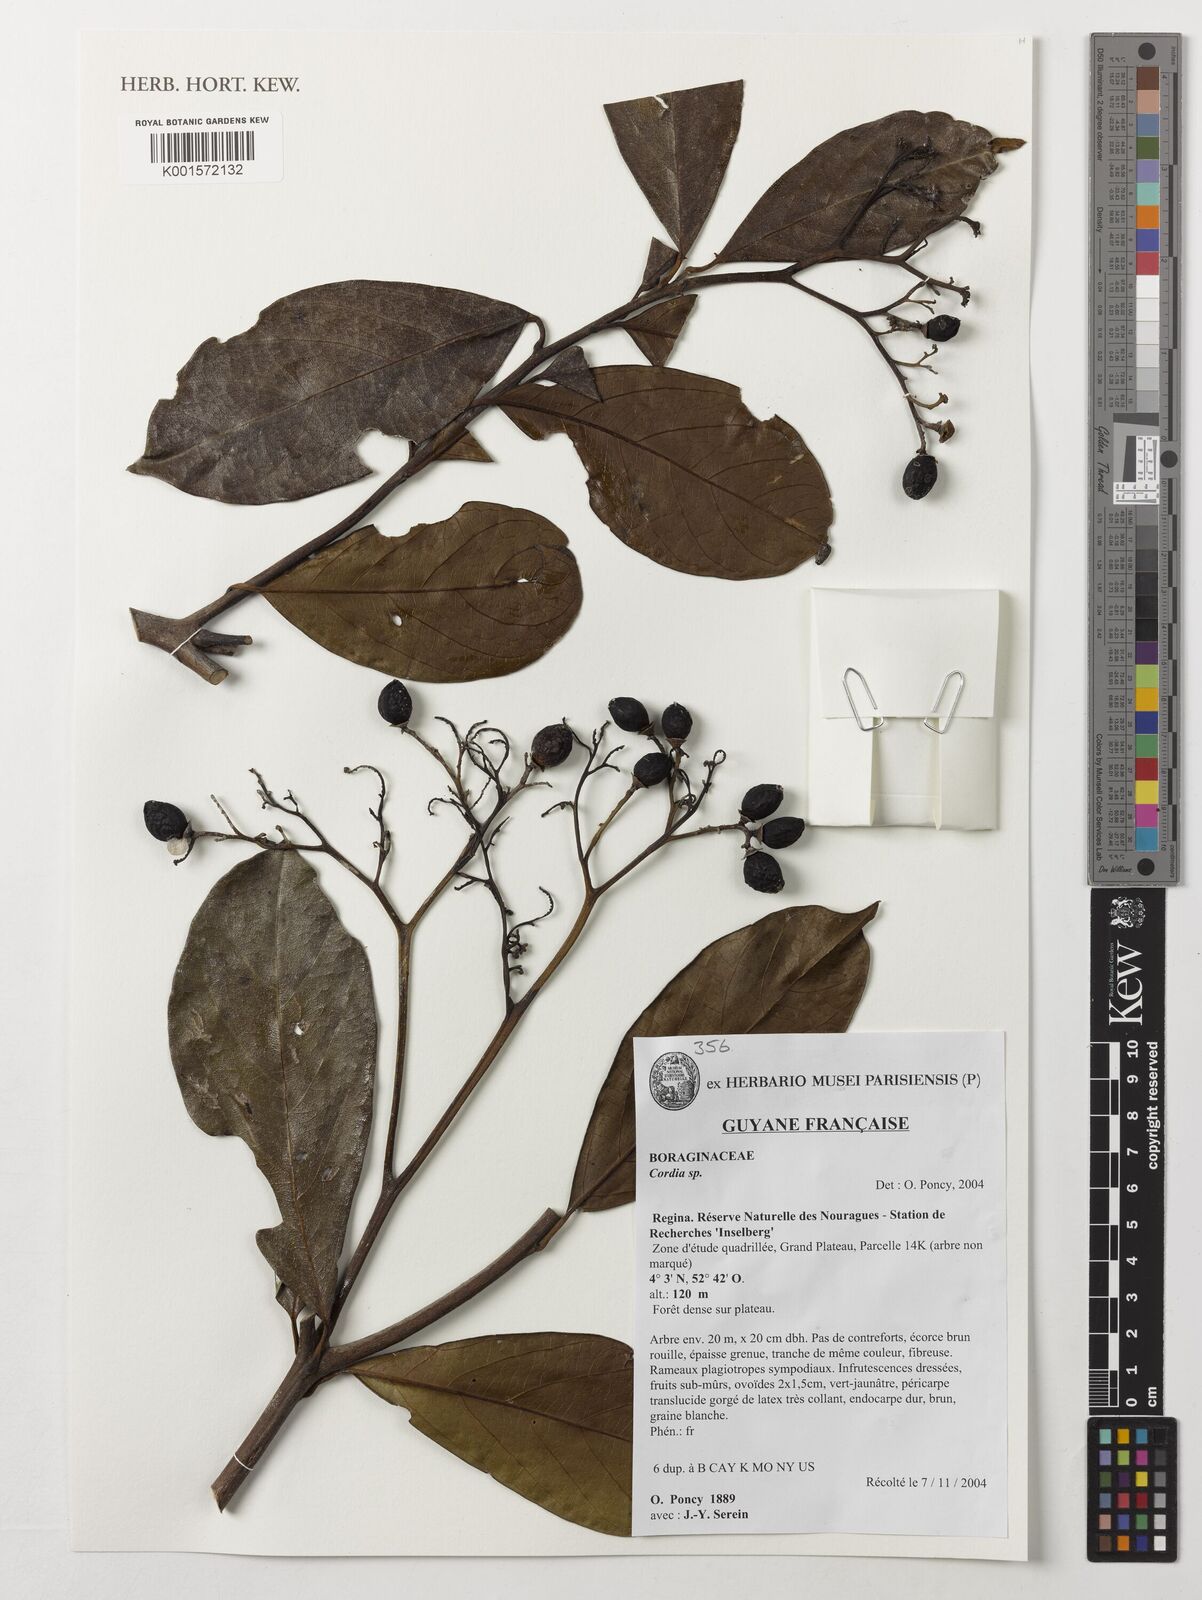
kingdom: Plantae
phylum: Tracheophyta
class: Magnoliopsida
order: Boraginales
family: Cordiaceae
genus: Cordia
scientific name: Cordia
